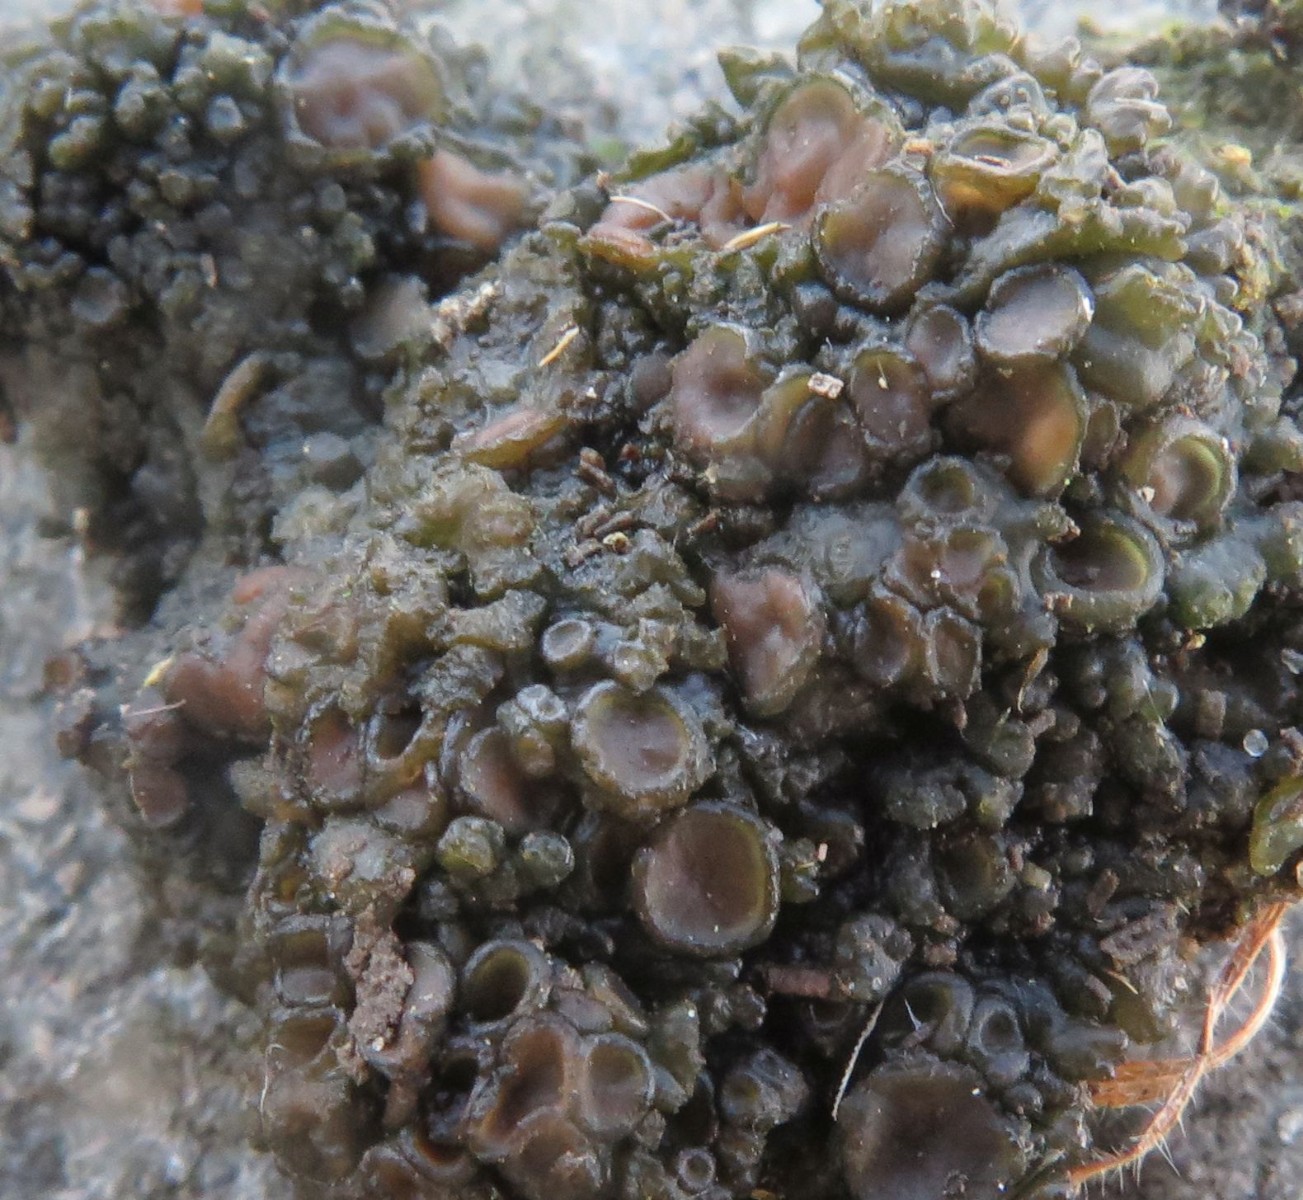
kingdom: Fungi
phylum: Ascomycota
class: Lecanoromycetes
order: Peltigerales
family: Collemataceae
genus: Enchylium
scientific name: Enchylium tenax
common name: tyk bævrelav
